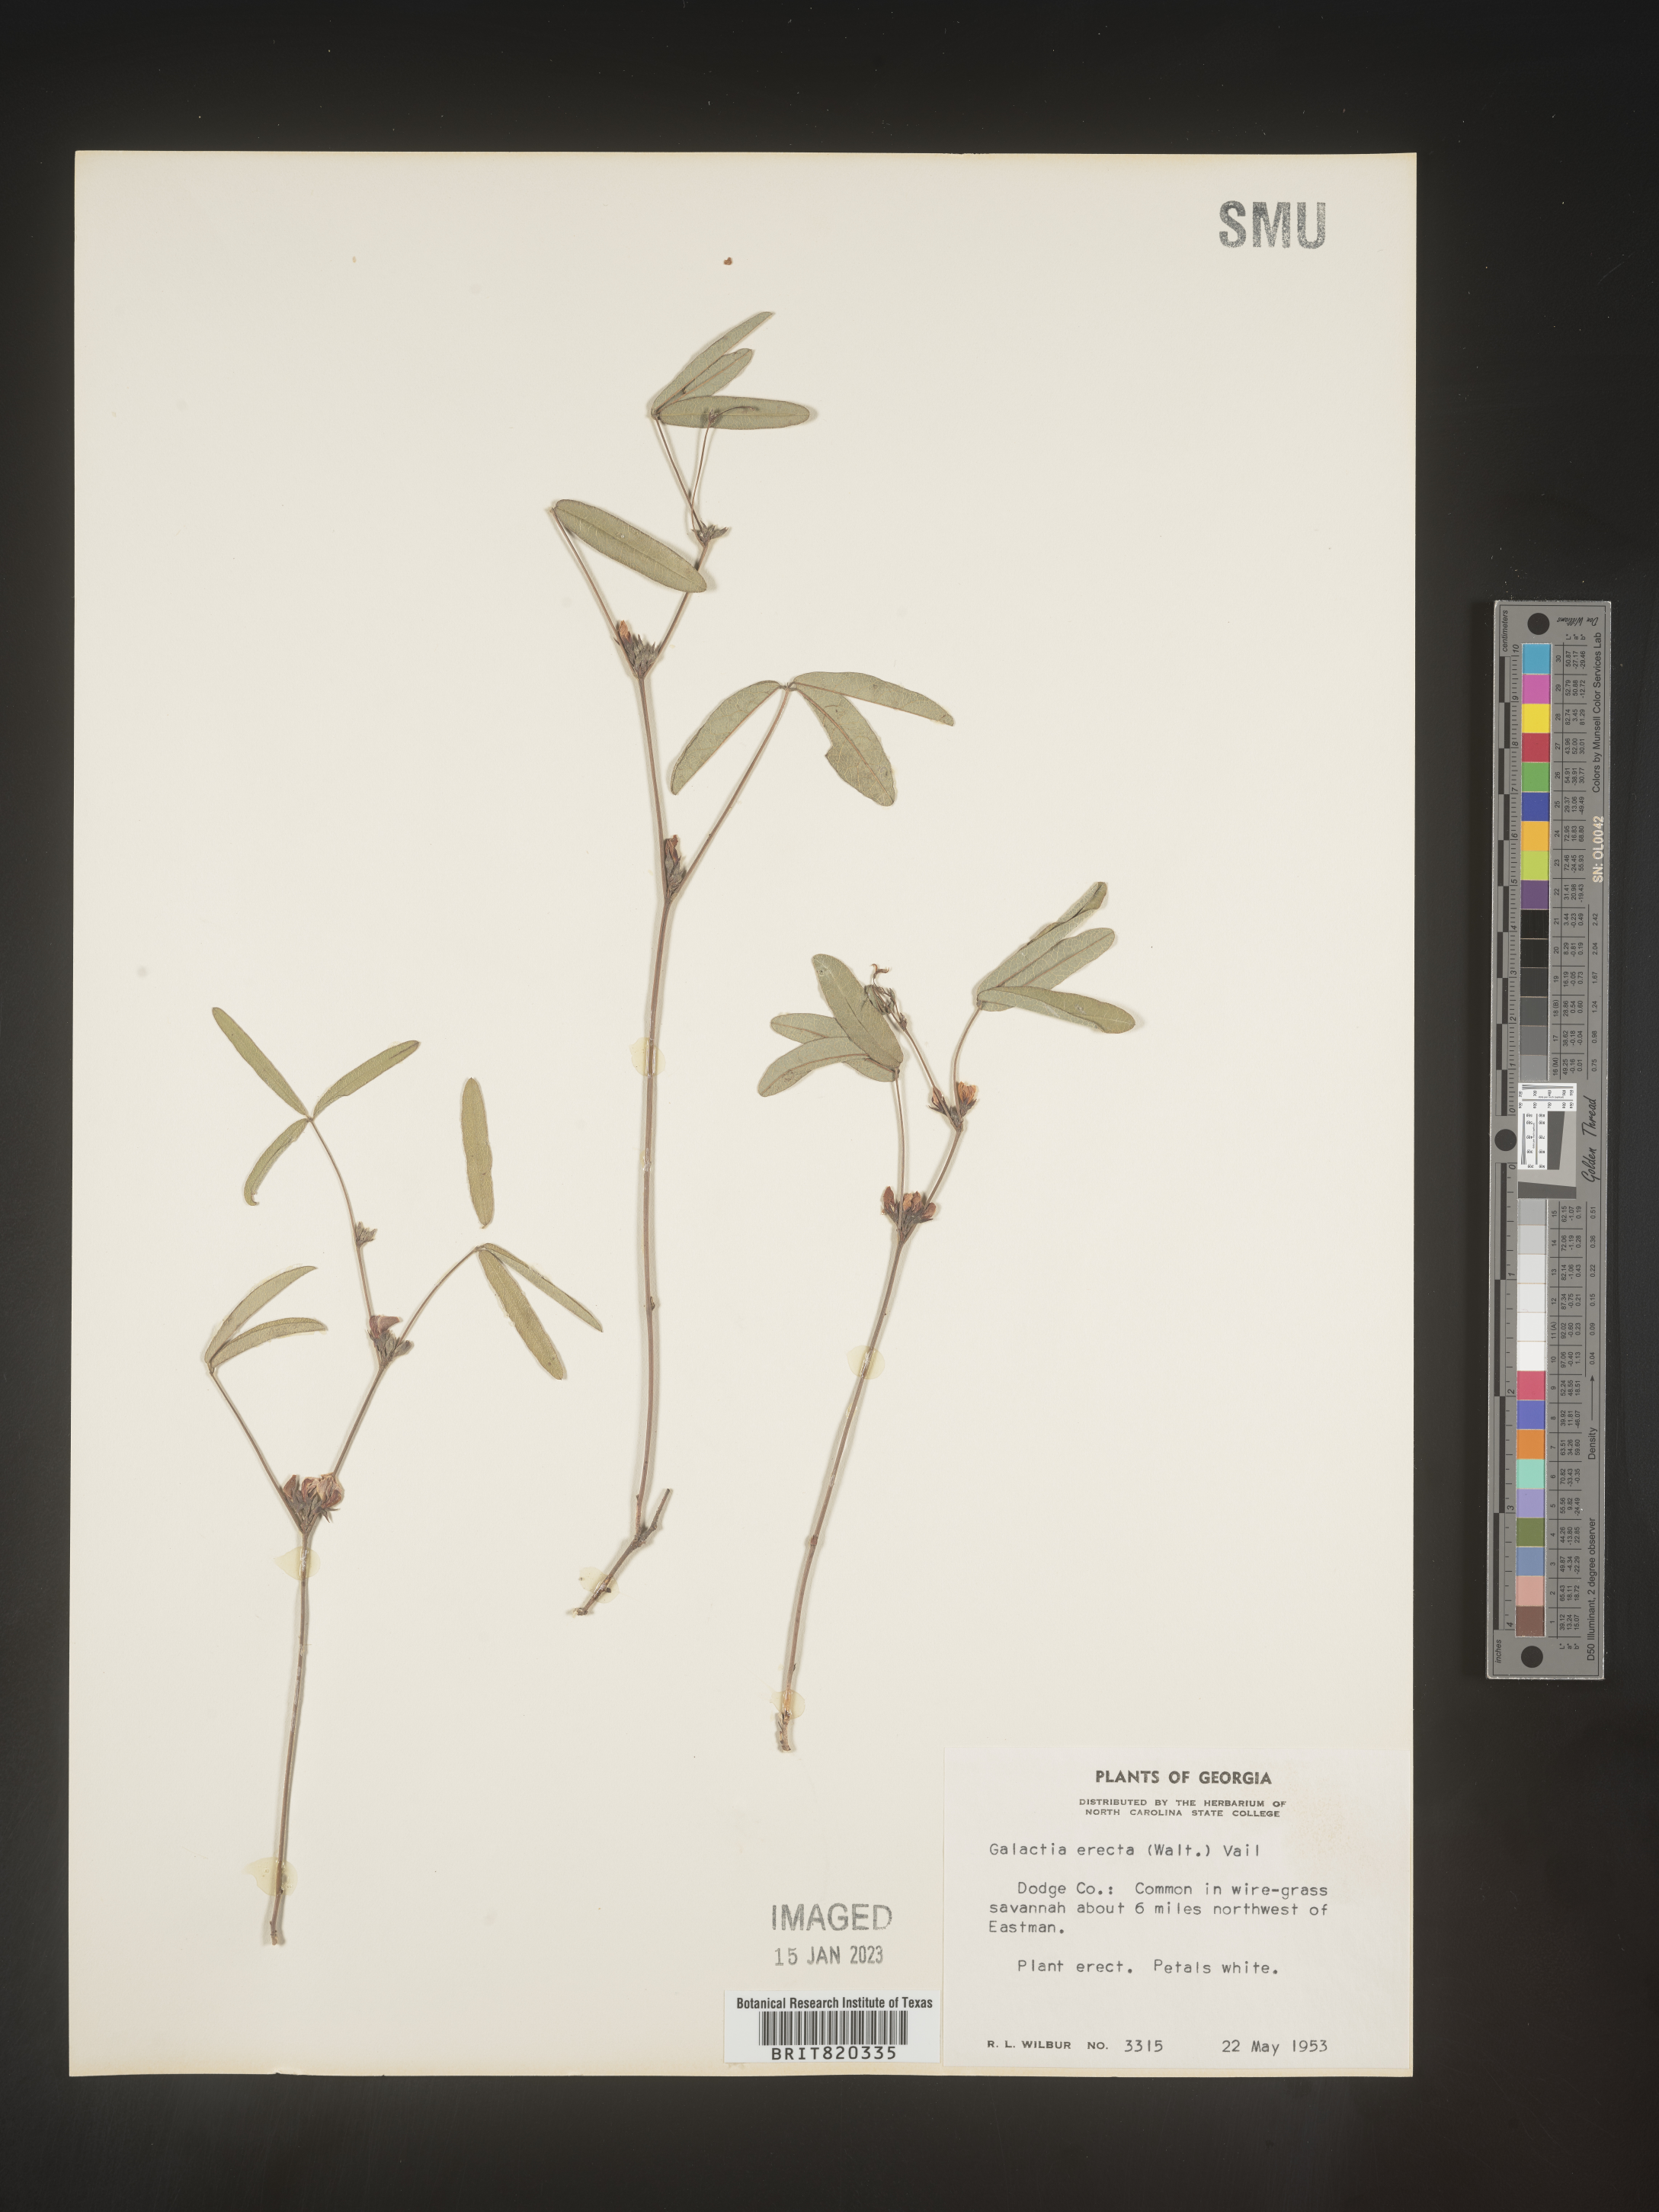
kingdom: Plantae
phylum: Tracheophyta
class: Magnoliopsida
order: Fabales
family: Fabaceae
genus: Galactia
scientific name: Galactia erecta
